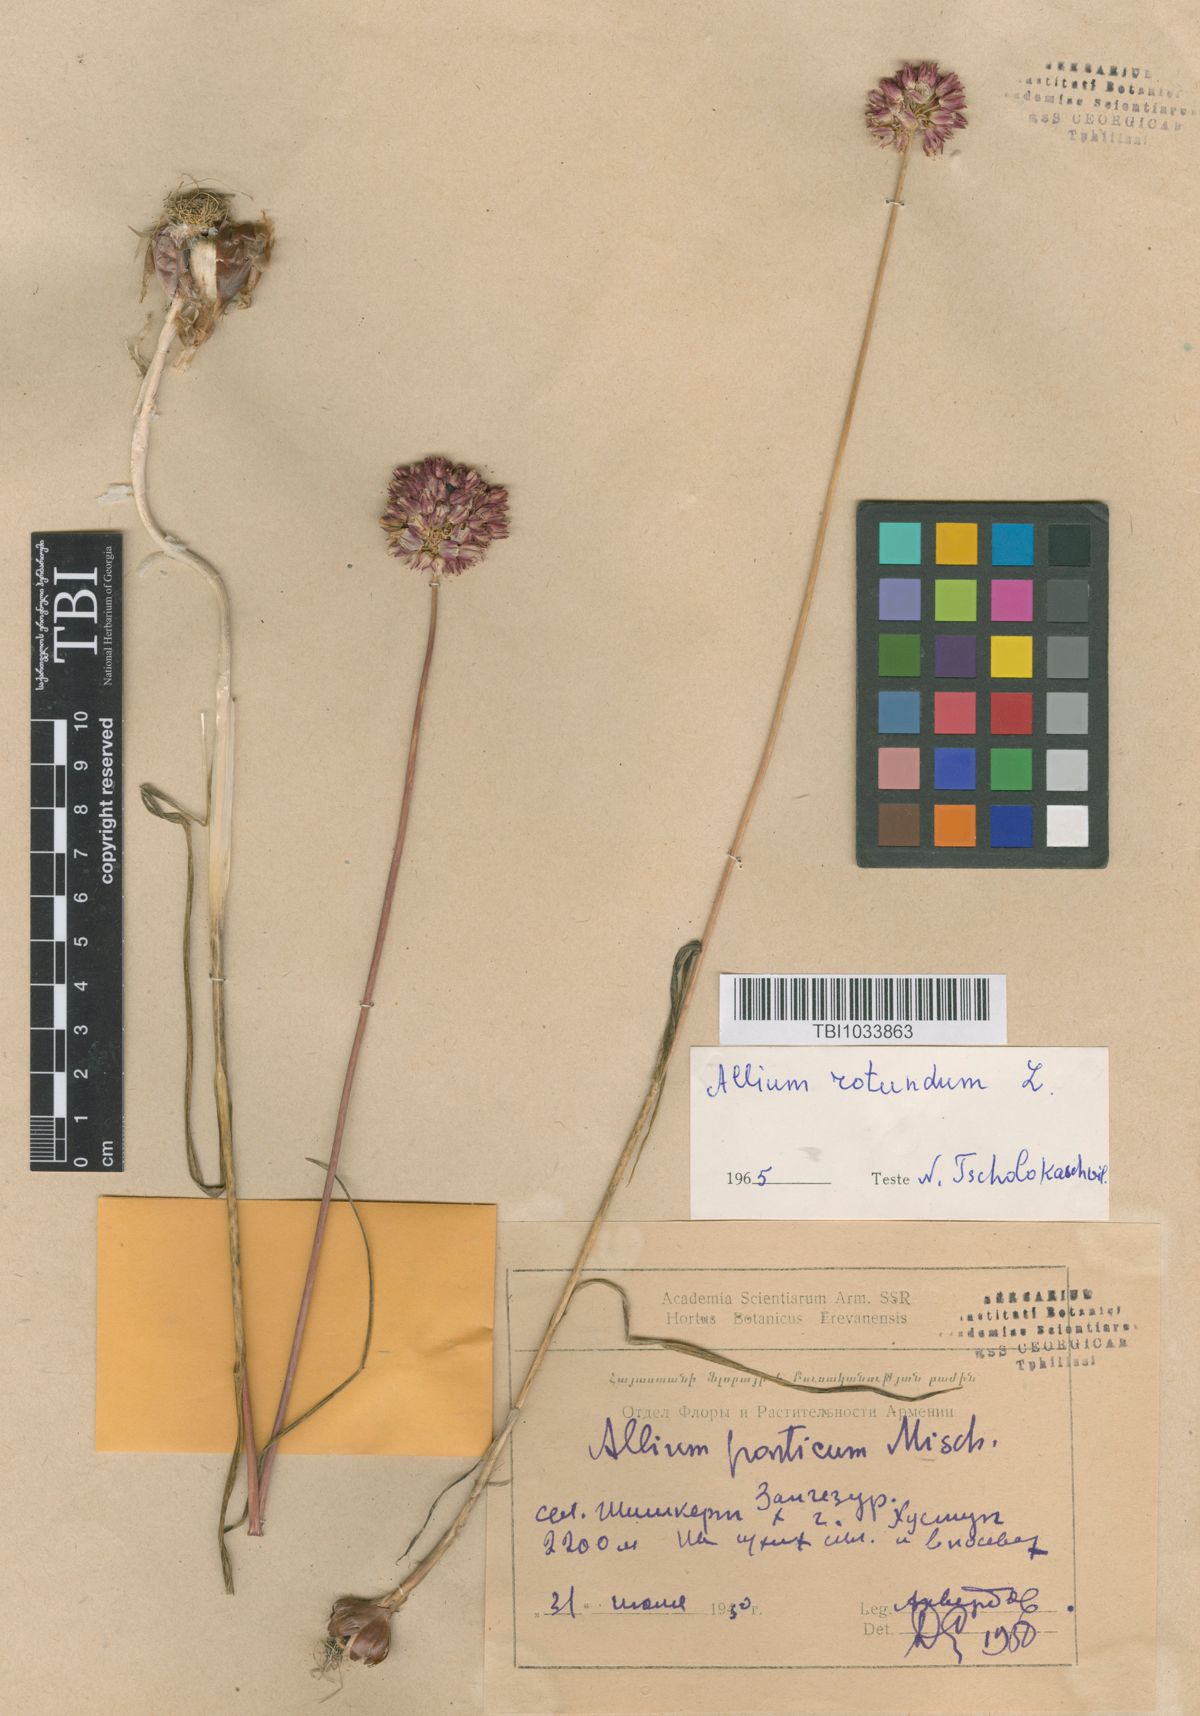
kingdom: Plantae
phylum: Tracheophyta
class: Liliopsida
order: Asparagales
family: Amaryllidaceae
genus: Allium
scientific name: Allium rotundum
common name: Sand leek
